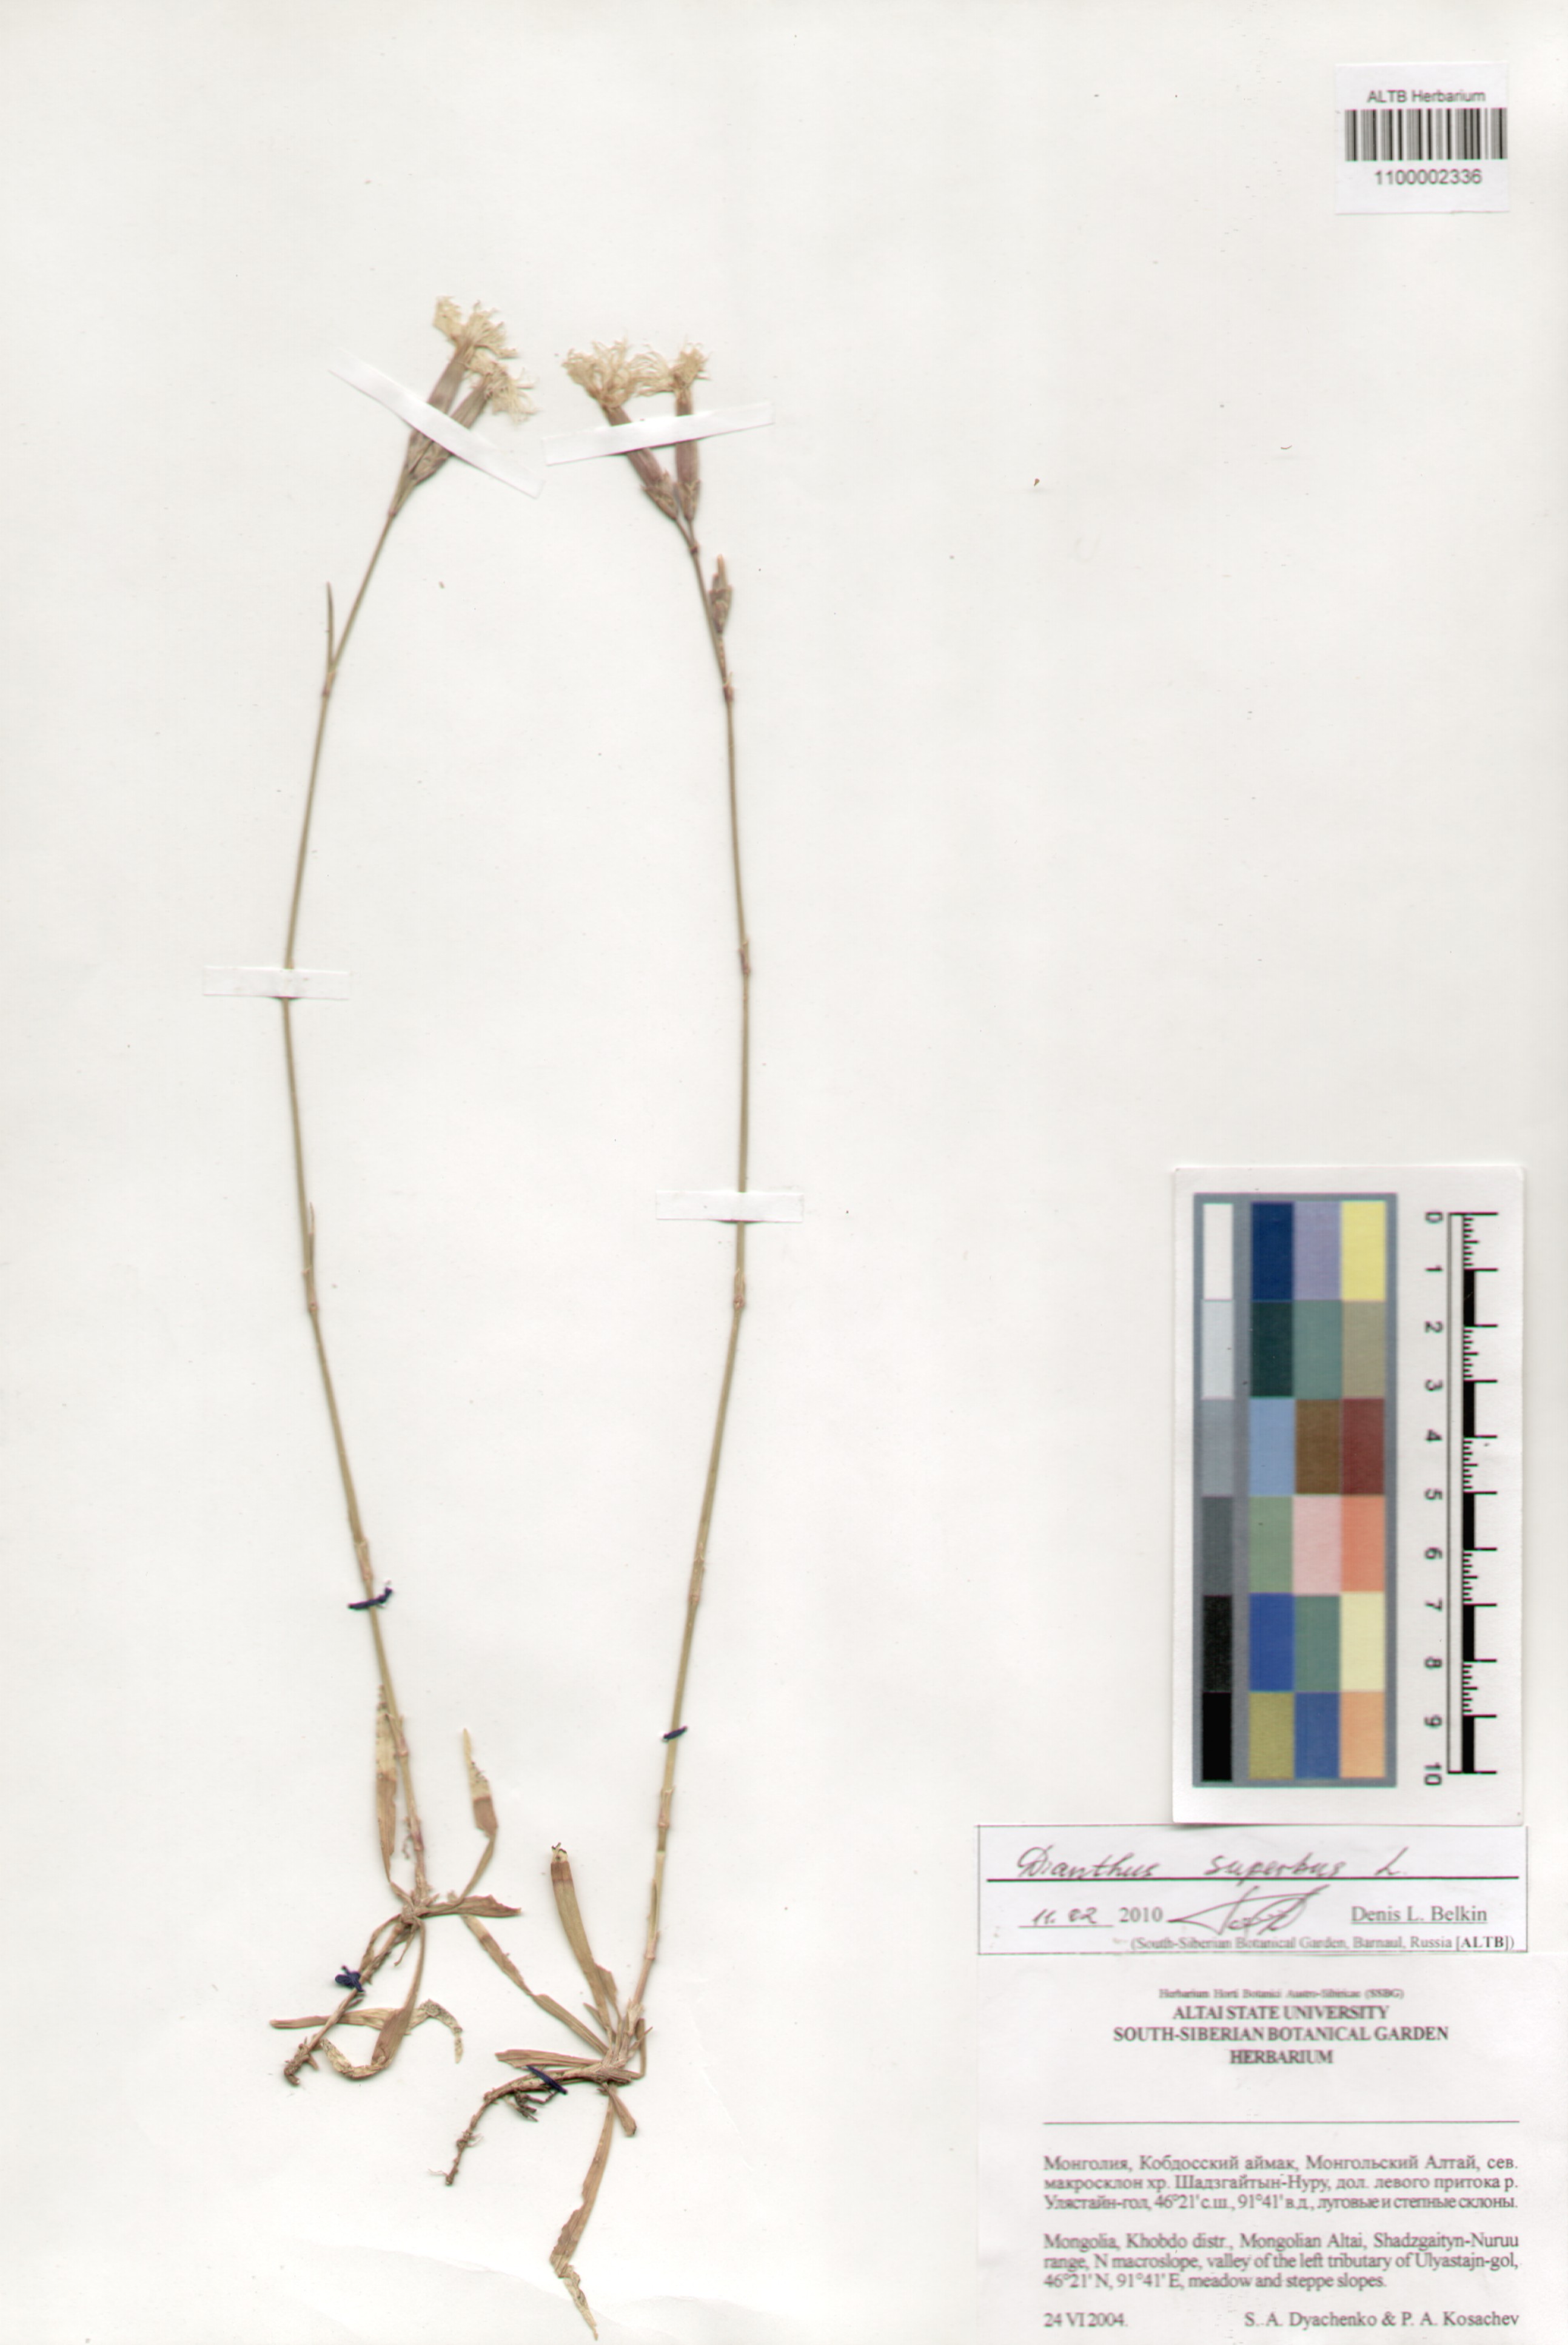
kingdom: Plantae
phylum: Tracheophyta
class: Magnoliopsida
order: Caryophyllales
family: Caryophyllaceae
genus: Dianthus
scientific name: Dianthus superbus
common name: Fringed pink
